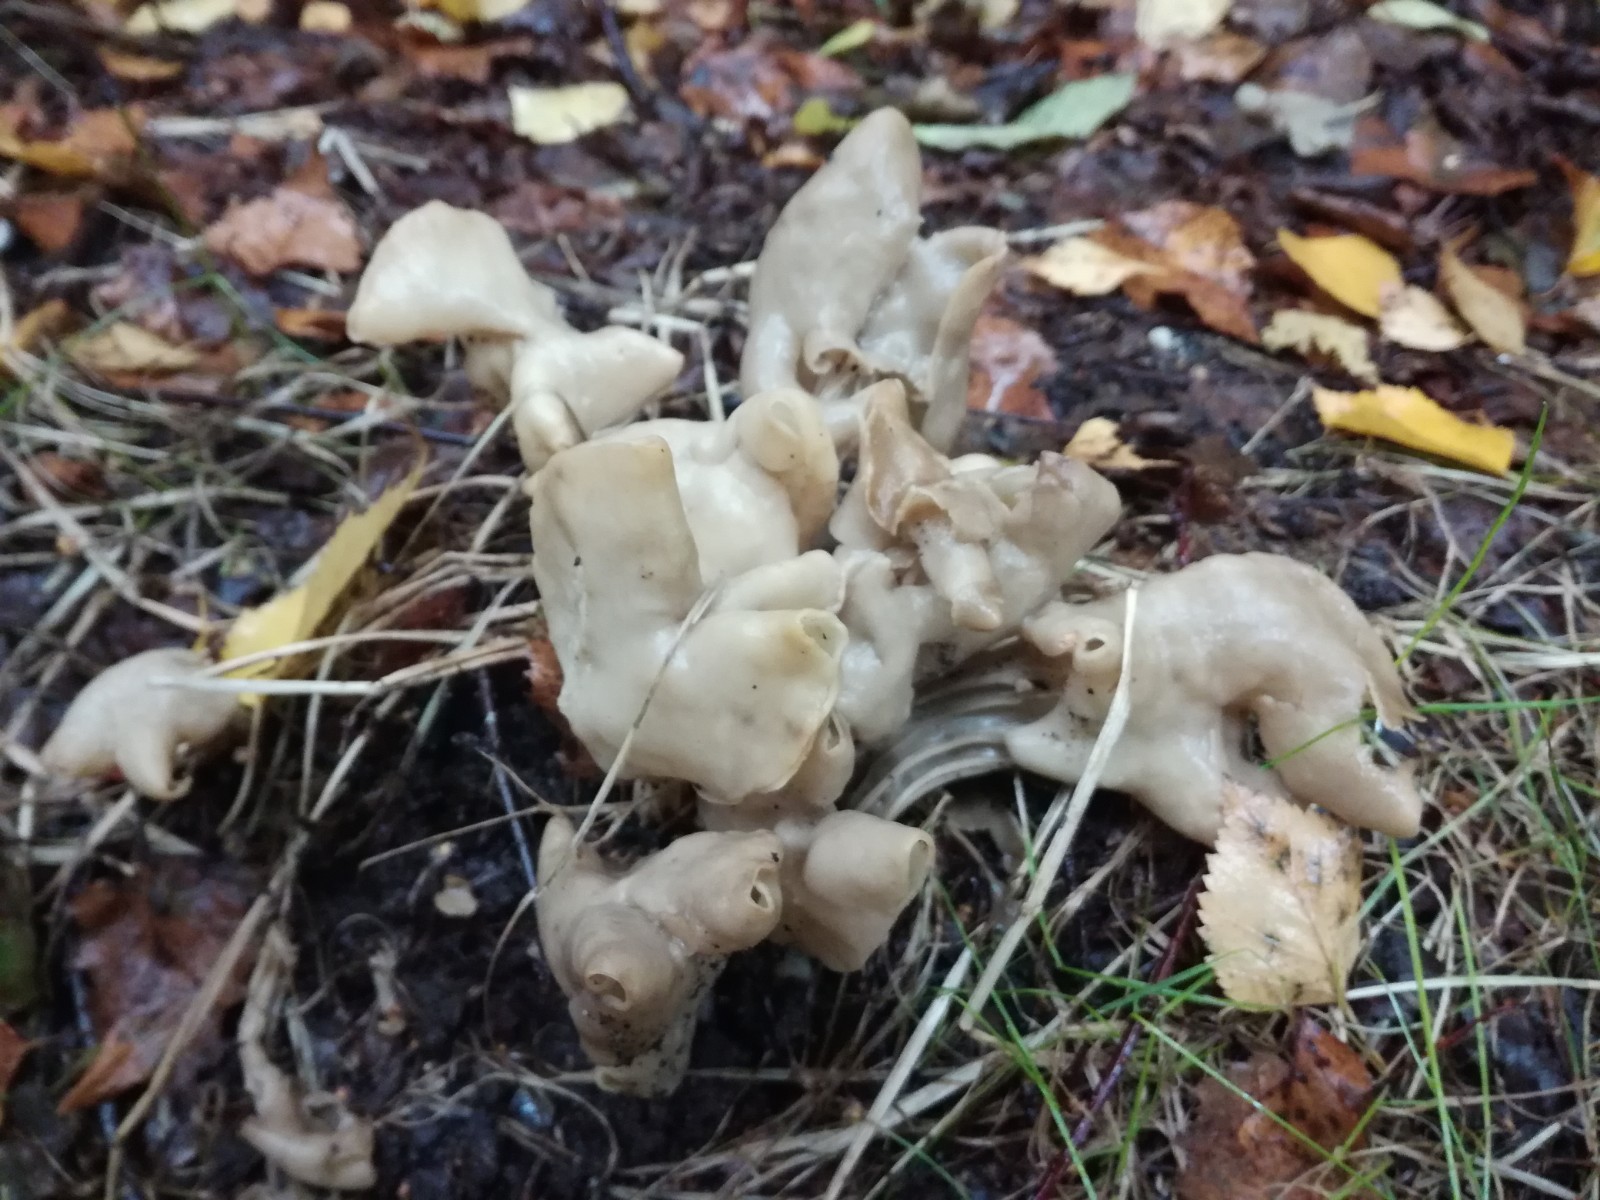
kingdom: Fungi
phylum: Ascomycota
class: Pezizomycetes
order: Pezizales
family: Helvellaceae
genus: Helvella
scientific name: Helvella crispa
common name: kruset foldhat
